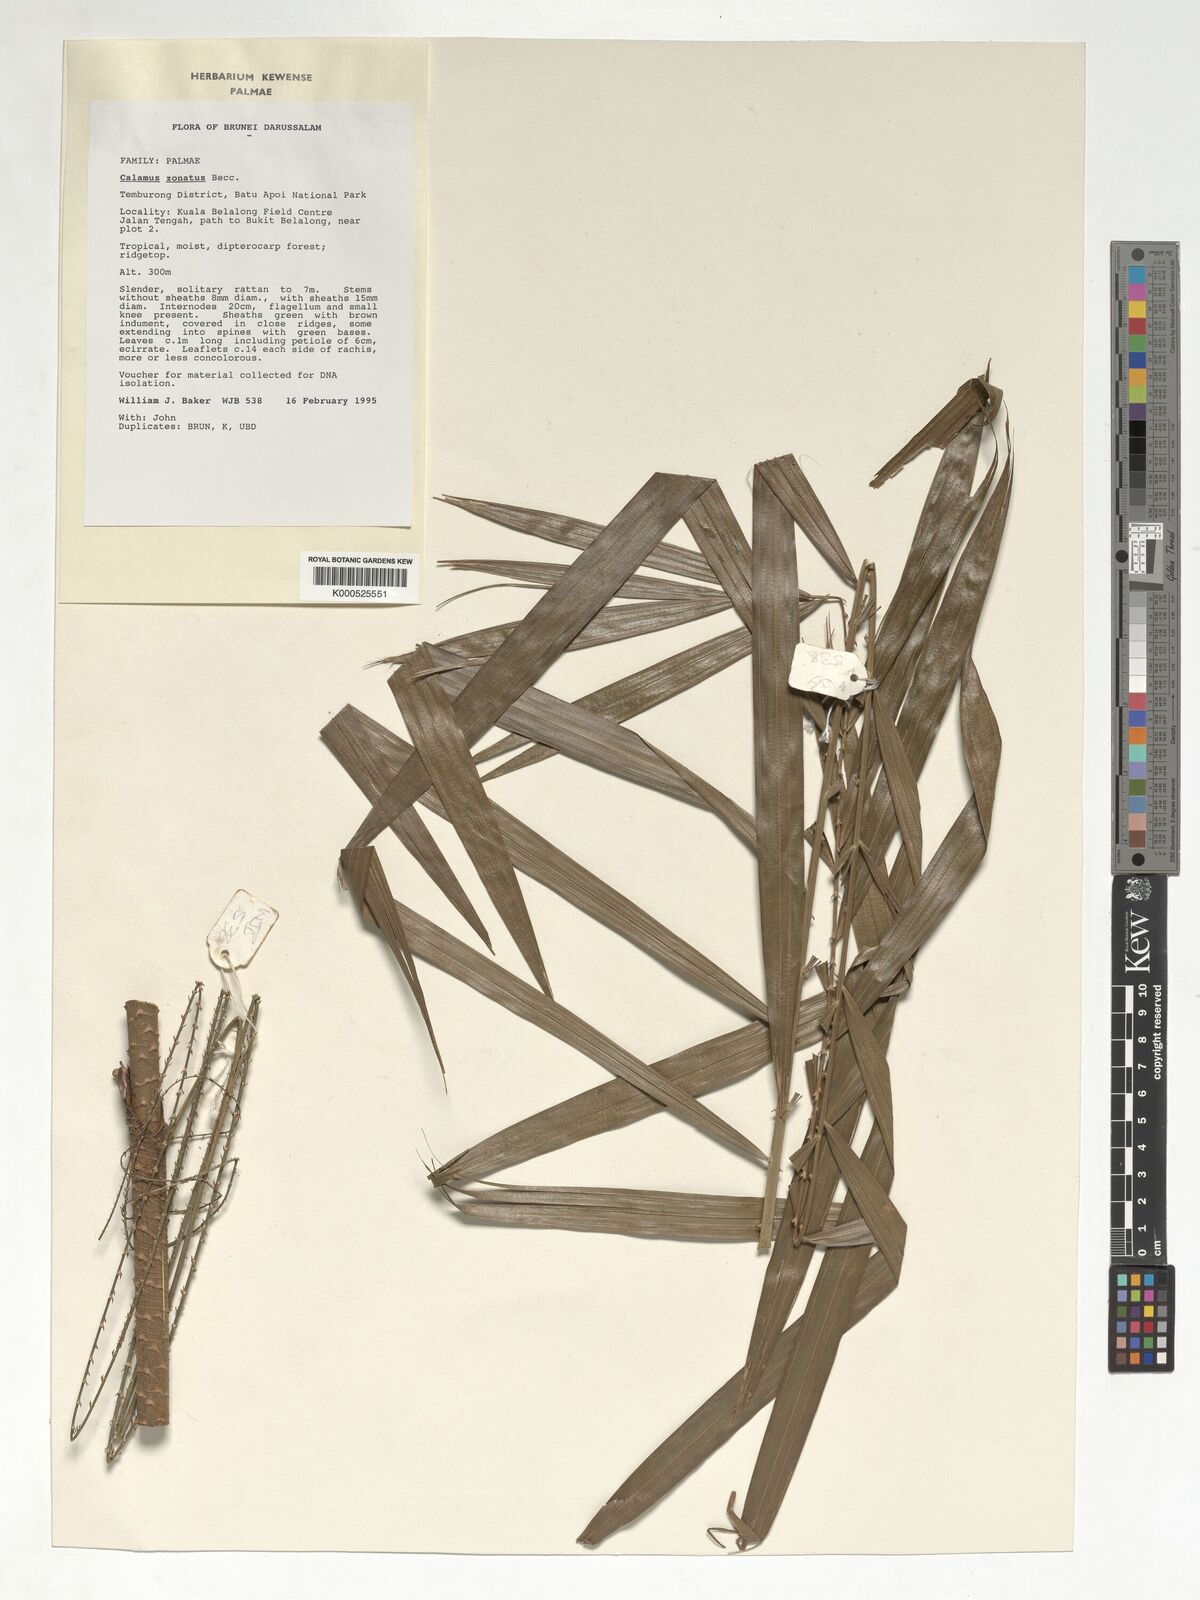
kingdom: Plantae
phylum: Tracheophyta
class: Liliopsida
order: Arecales
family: Arecaceae
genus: Calamus
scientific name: Calamus zonatus
